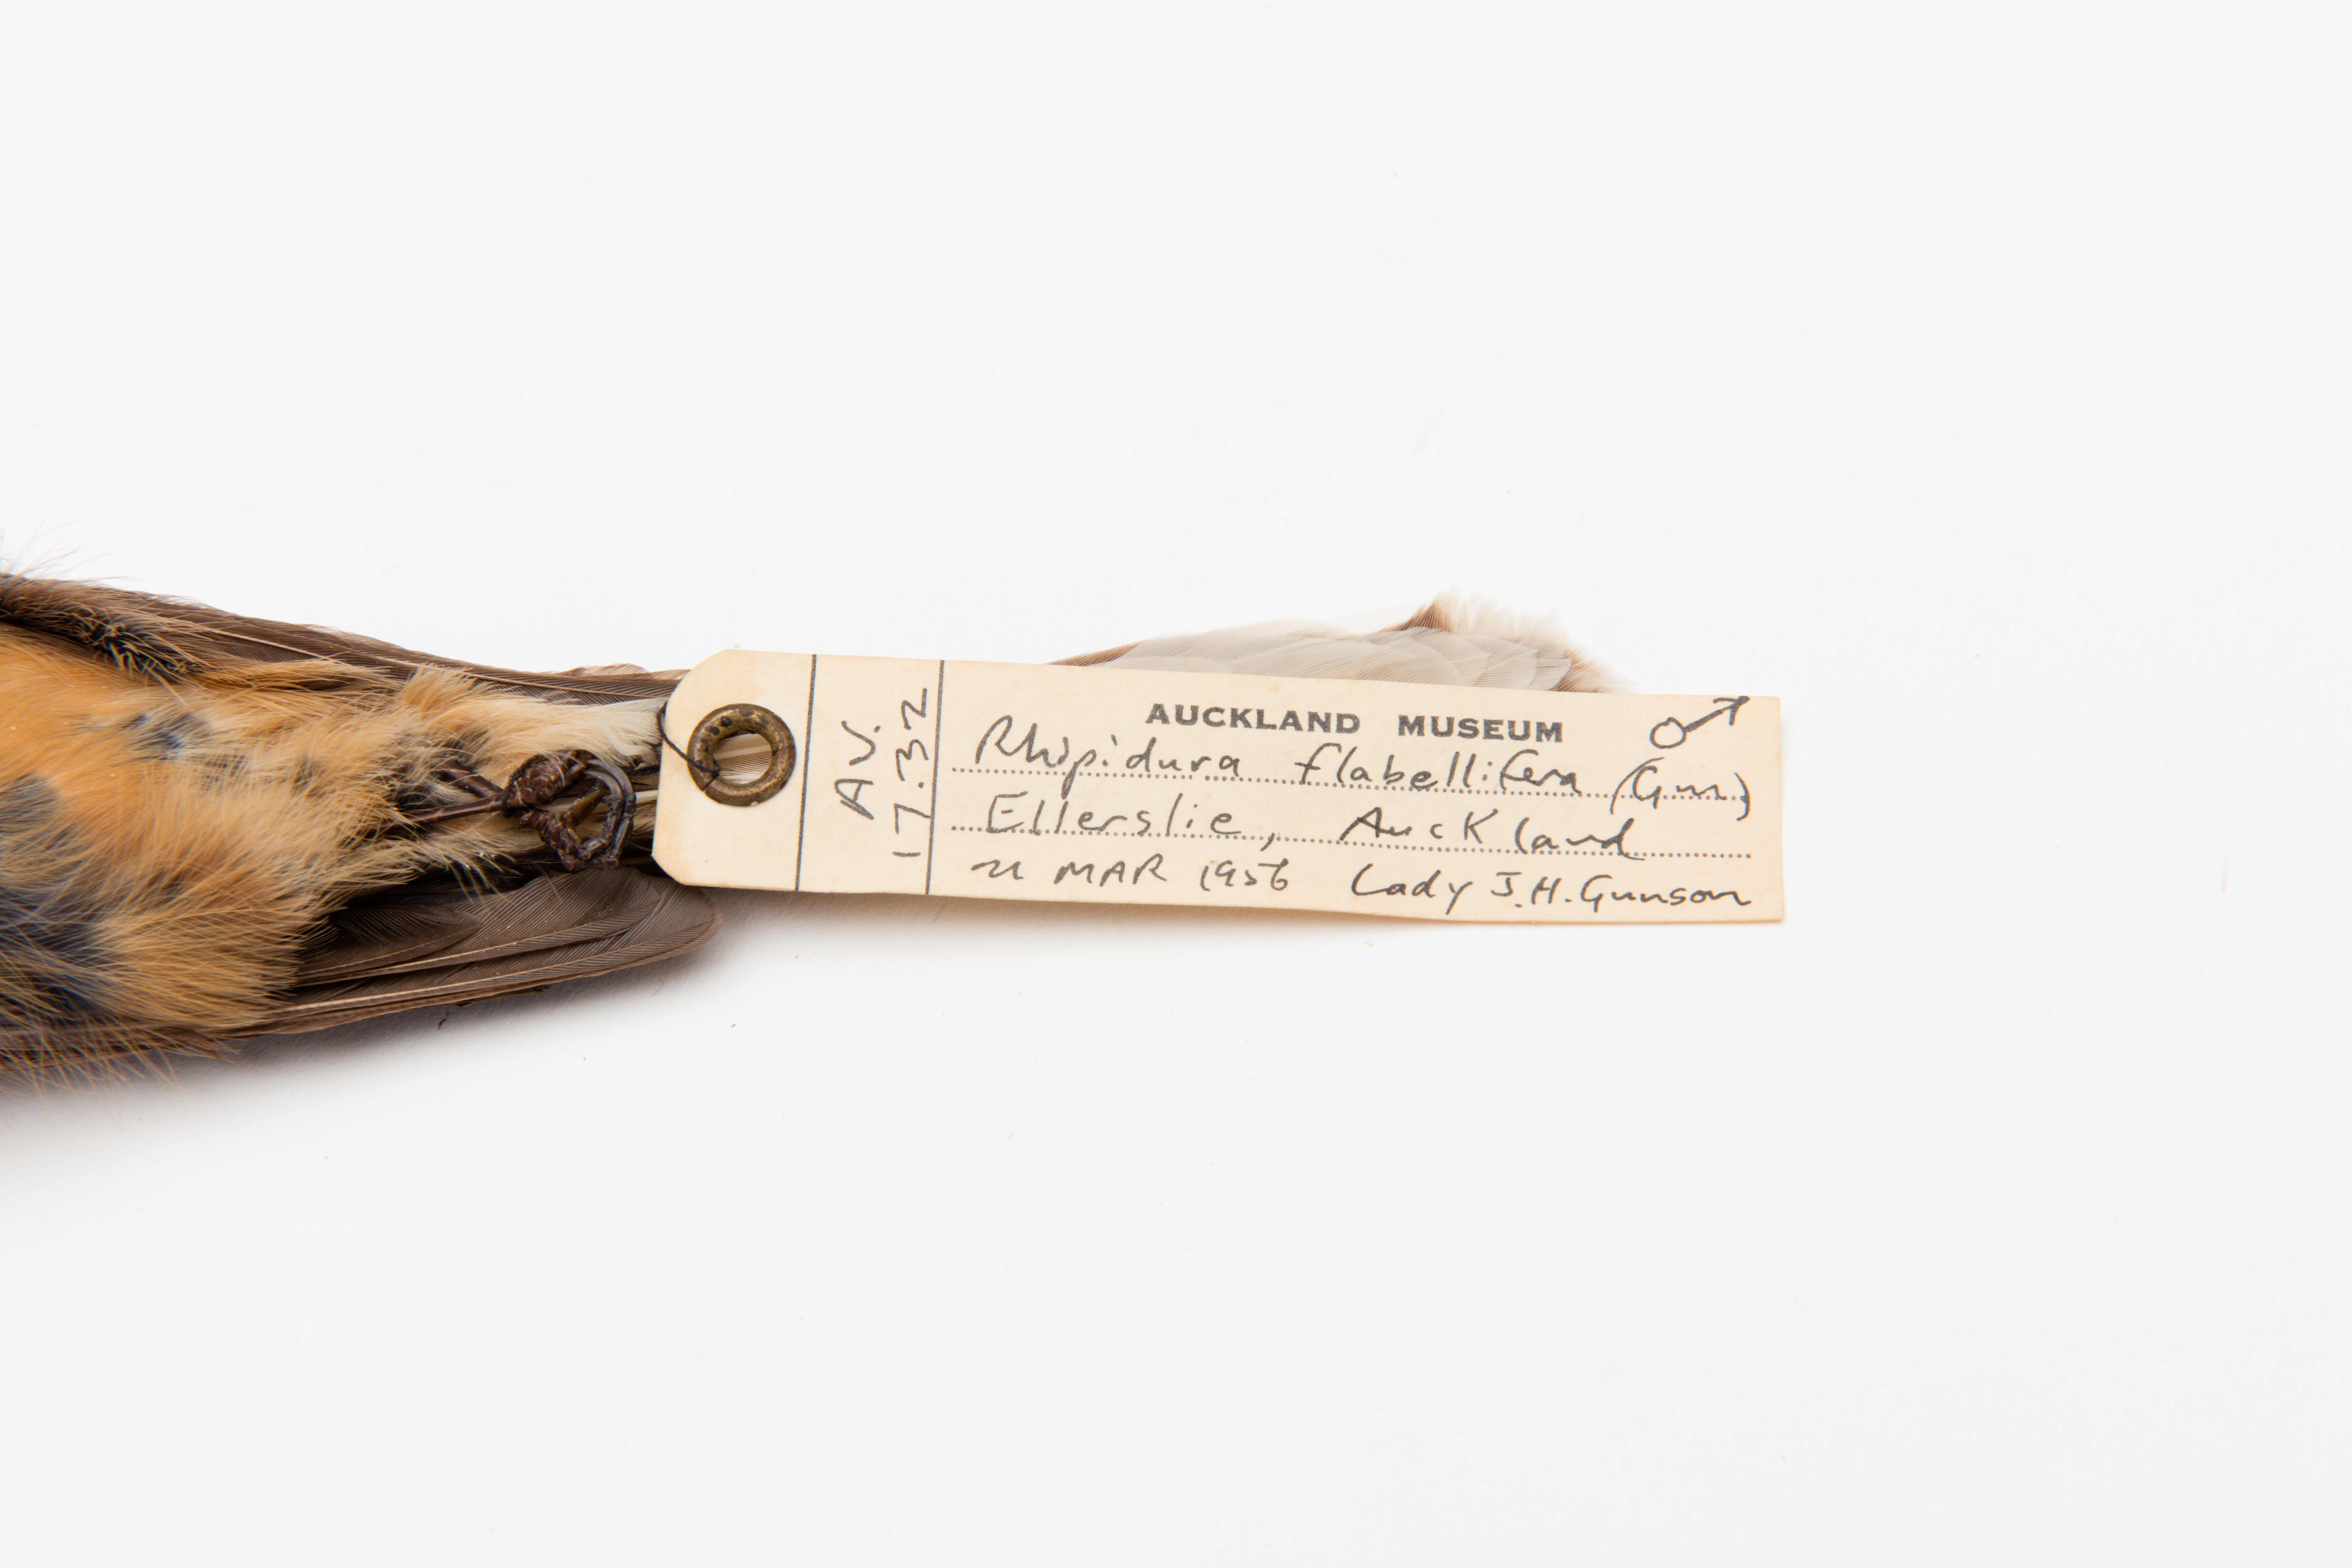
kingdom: Animalia
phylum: Chordata
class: Aves
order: Passeriformes
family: Rhipiduridae
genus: Rhipidura
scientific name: Rhipidura fuliginosa
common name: New zealand fantail
